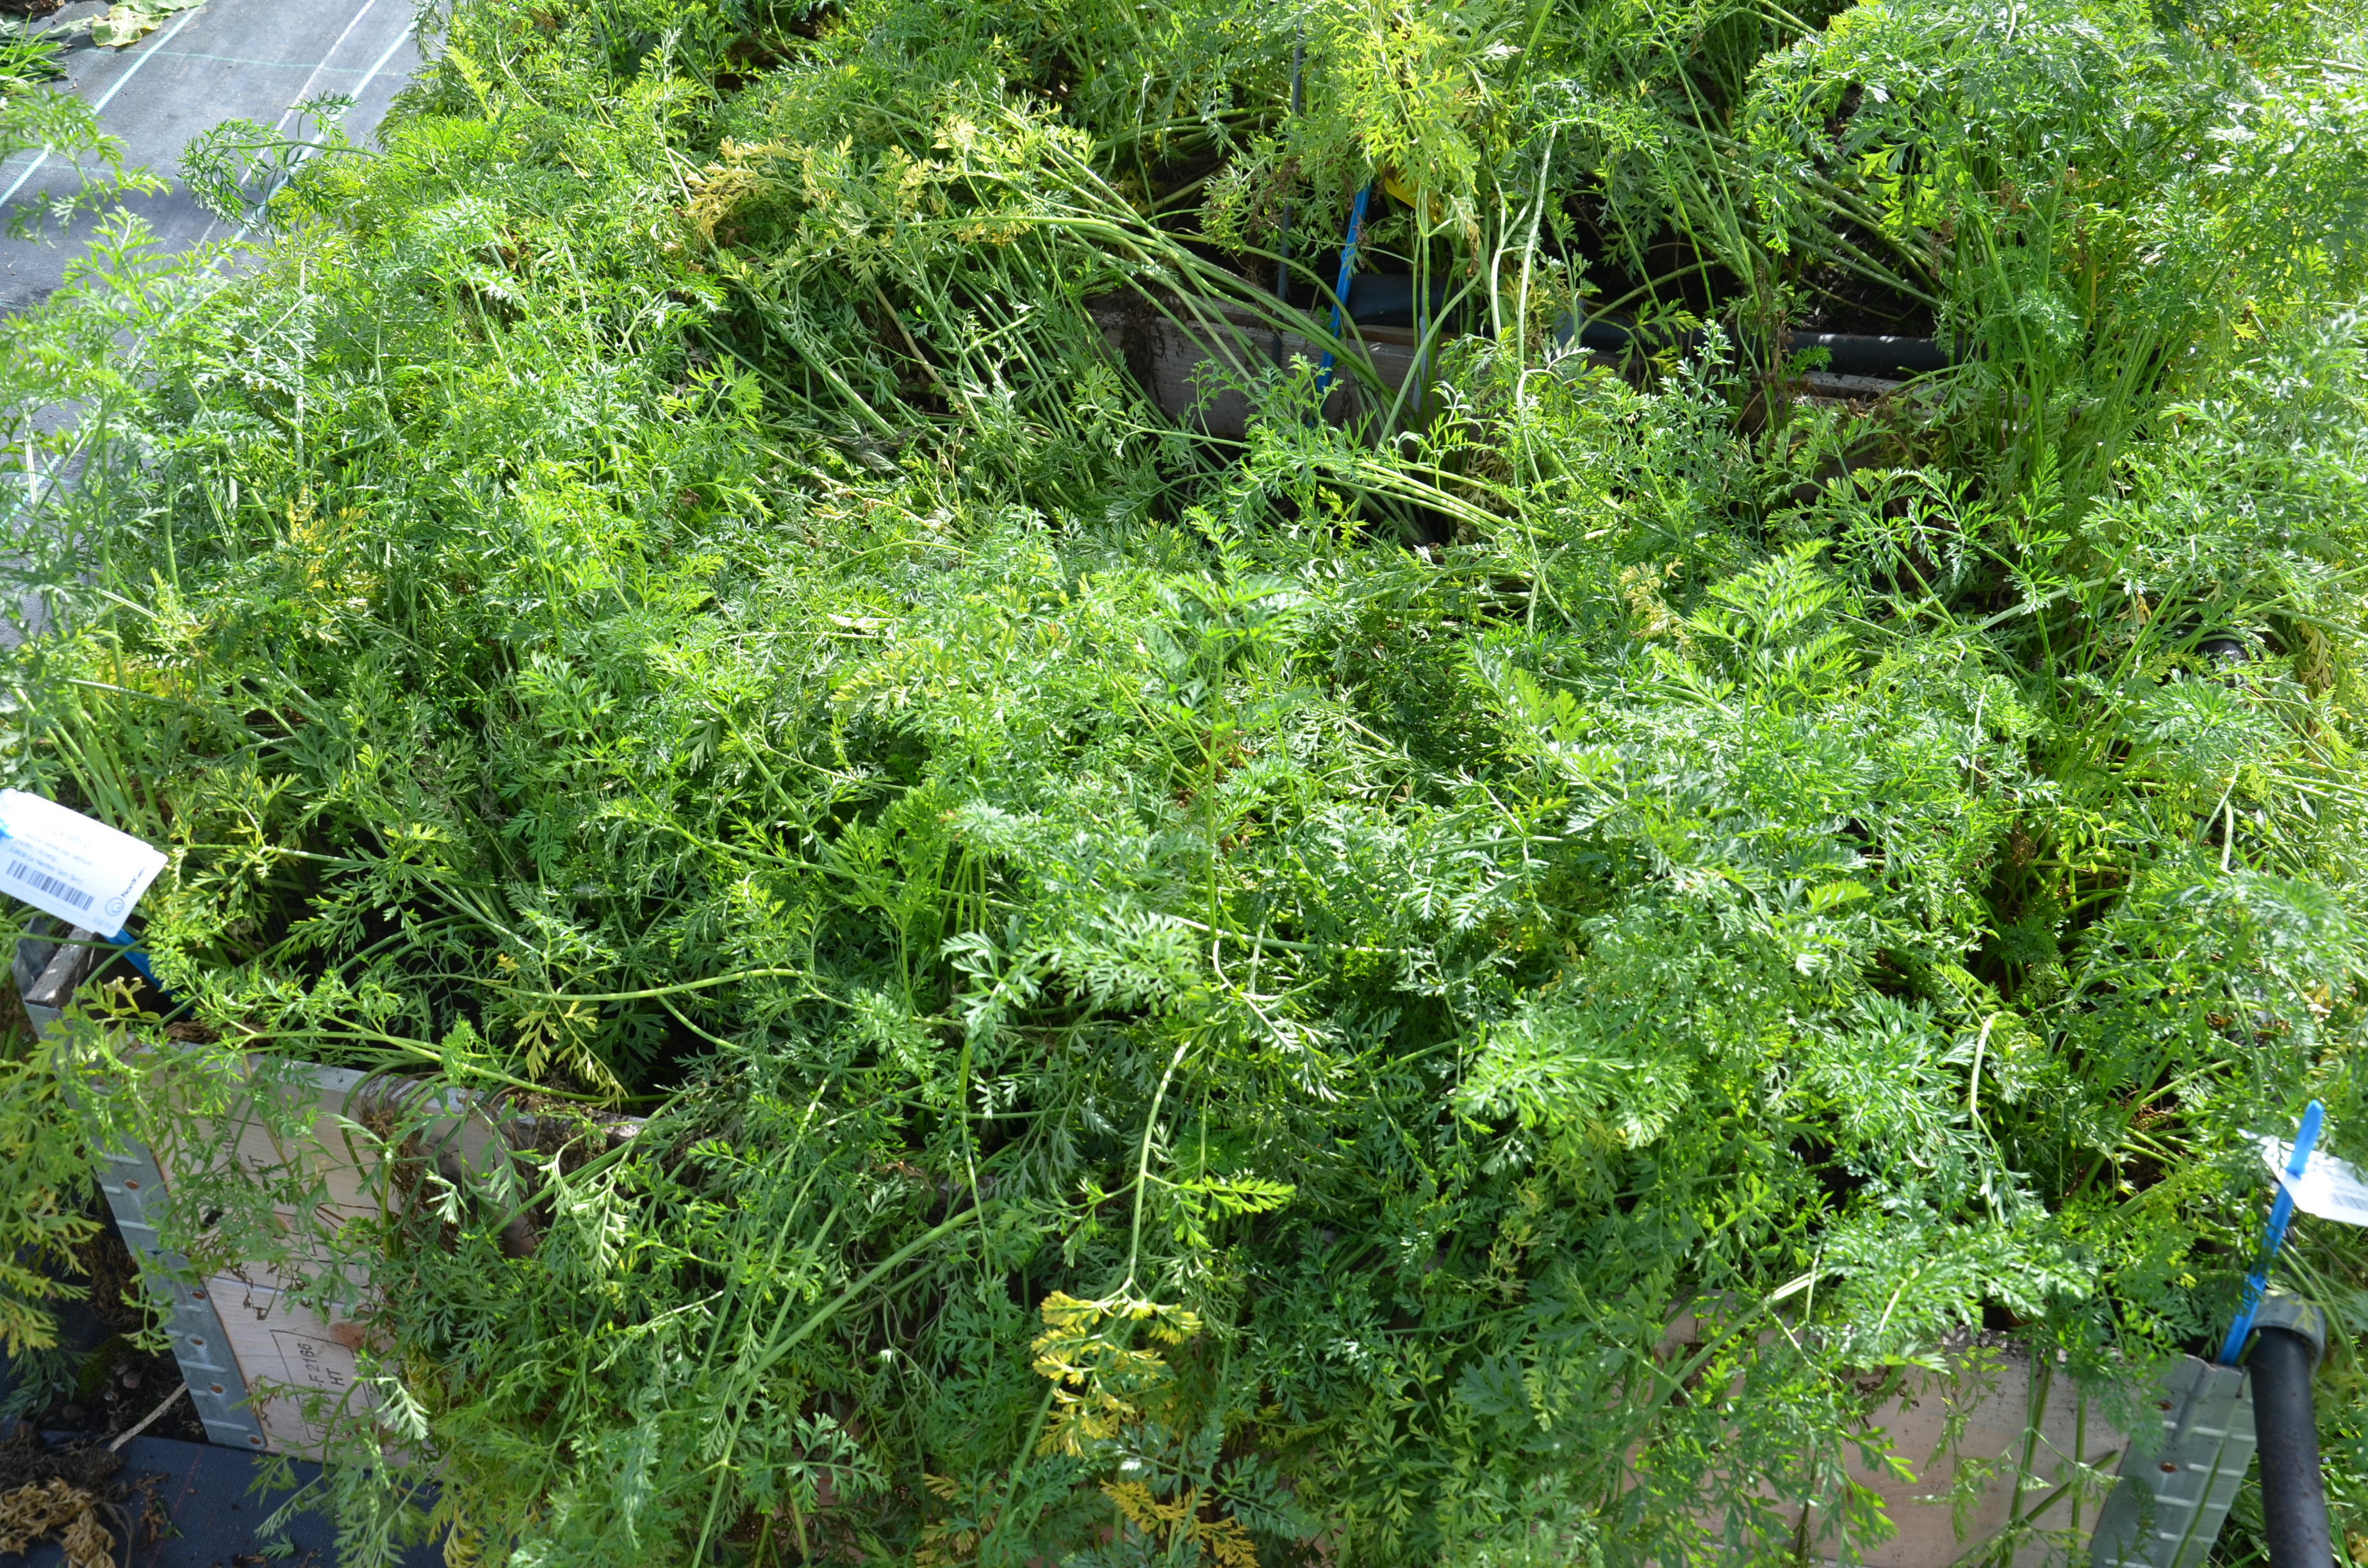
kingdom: Plantae
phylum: Tracheophyta
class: Magnoliopsida
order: Apiales
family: Apiaceae
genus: Daucus
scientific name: Daucus carota
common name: Wild carrot
